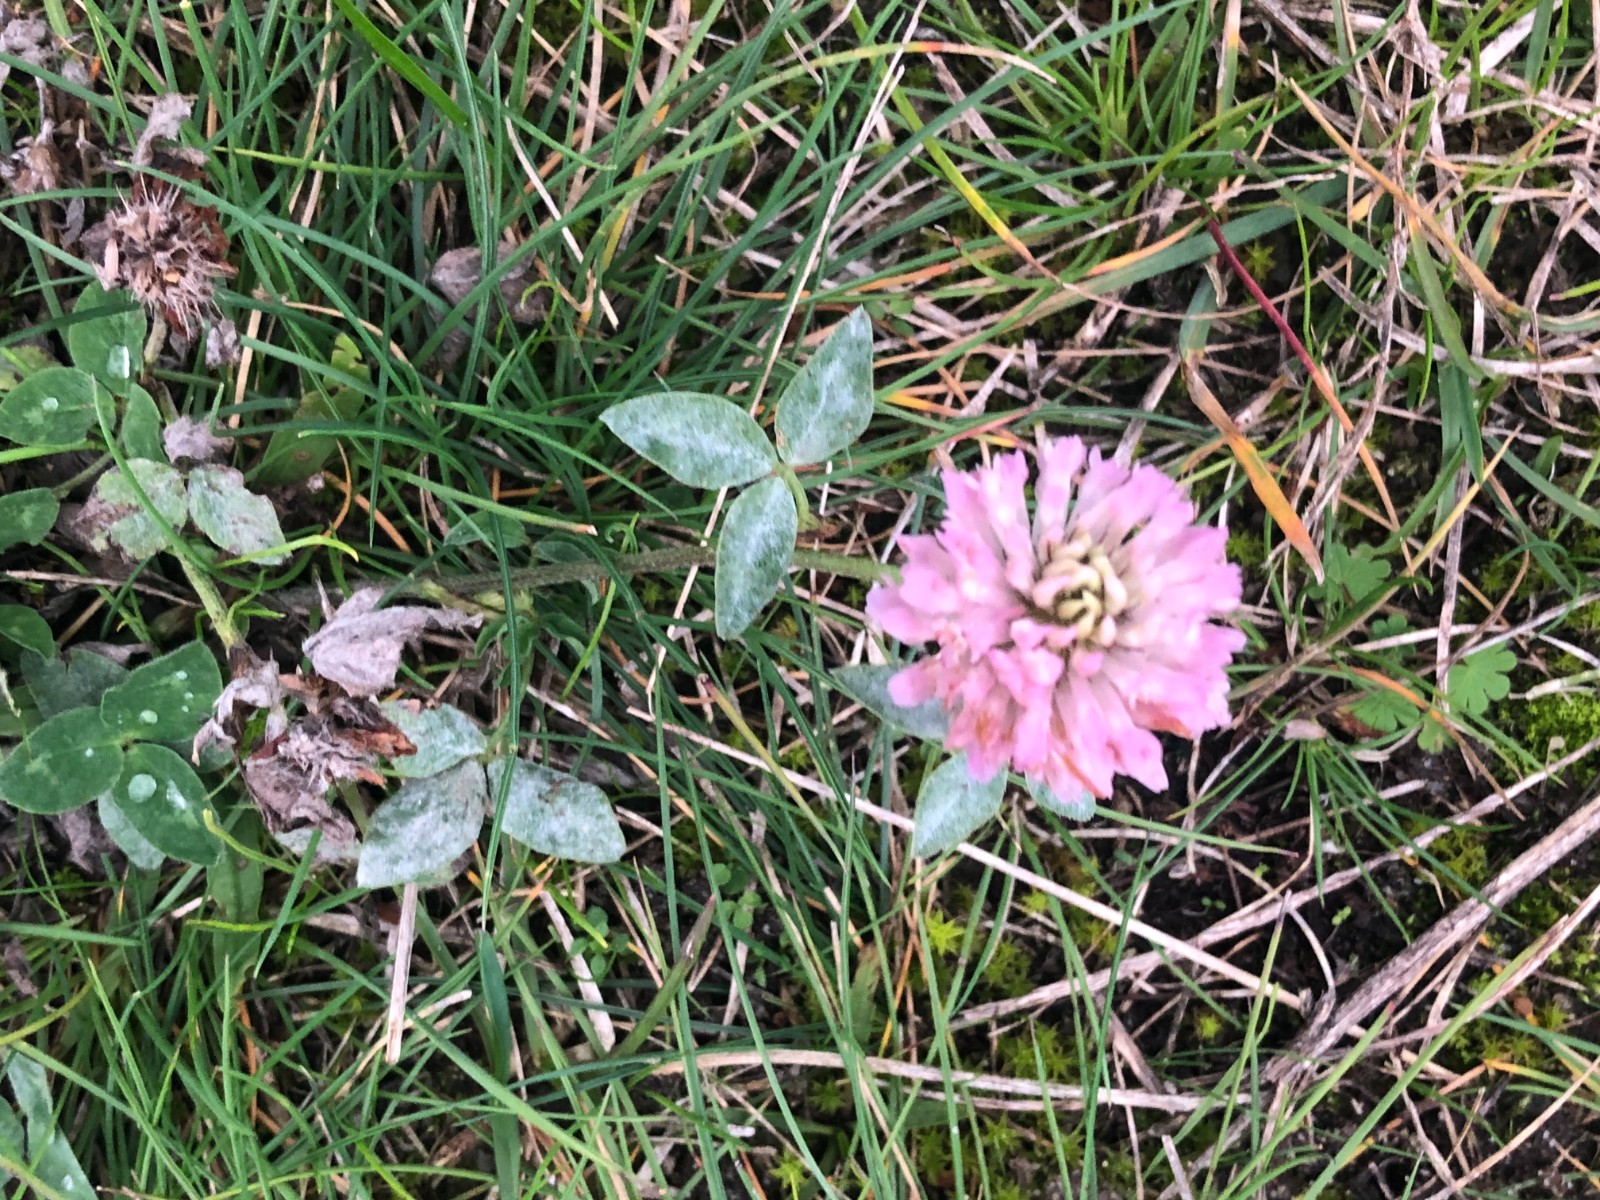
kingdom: Fungi
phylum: Ascomycota
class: Dothideomycetes
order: Pleosporales
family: Phaeosphaeriaceae
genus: Ampelomyces
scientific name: Ampelomyces quisqualis
